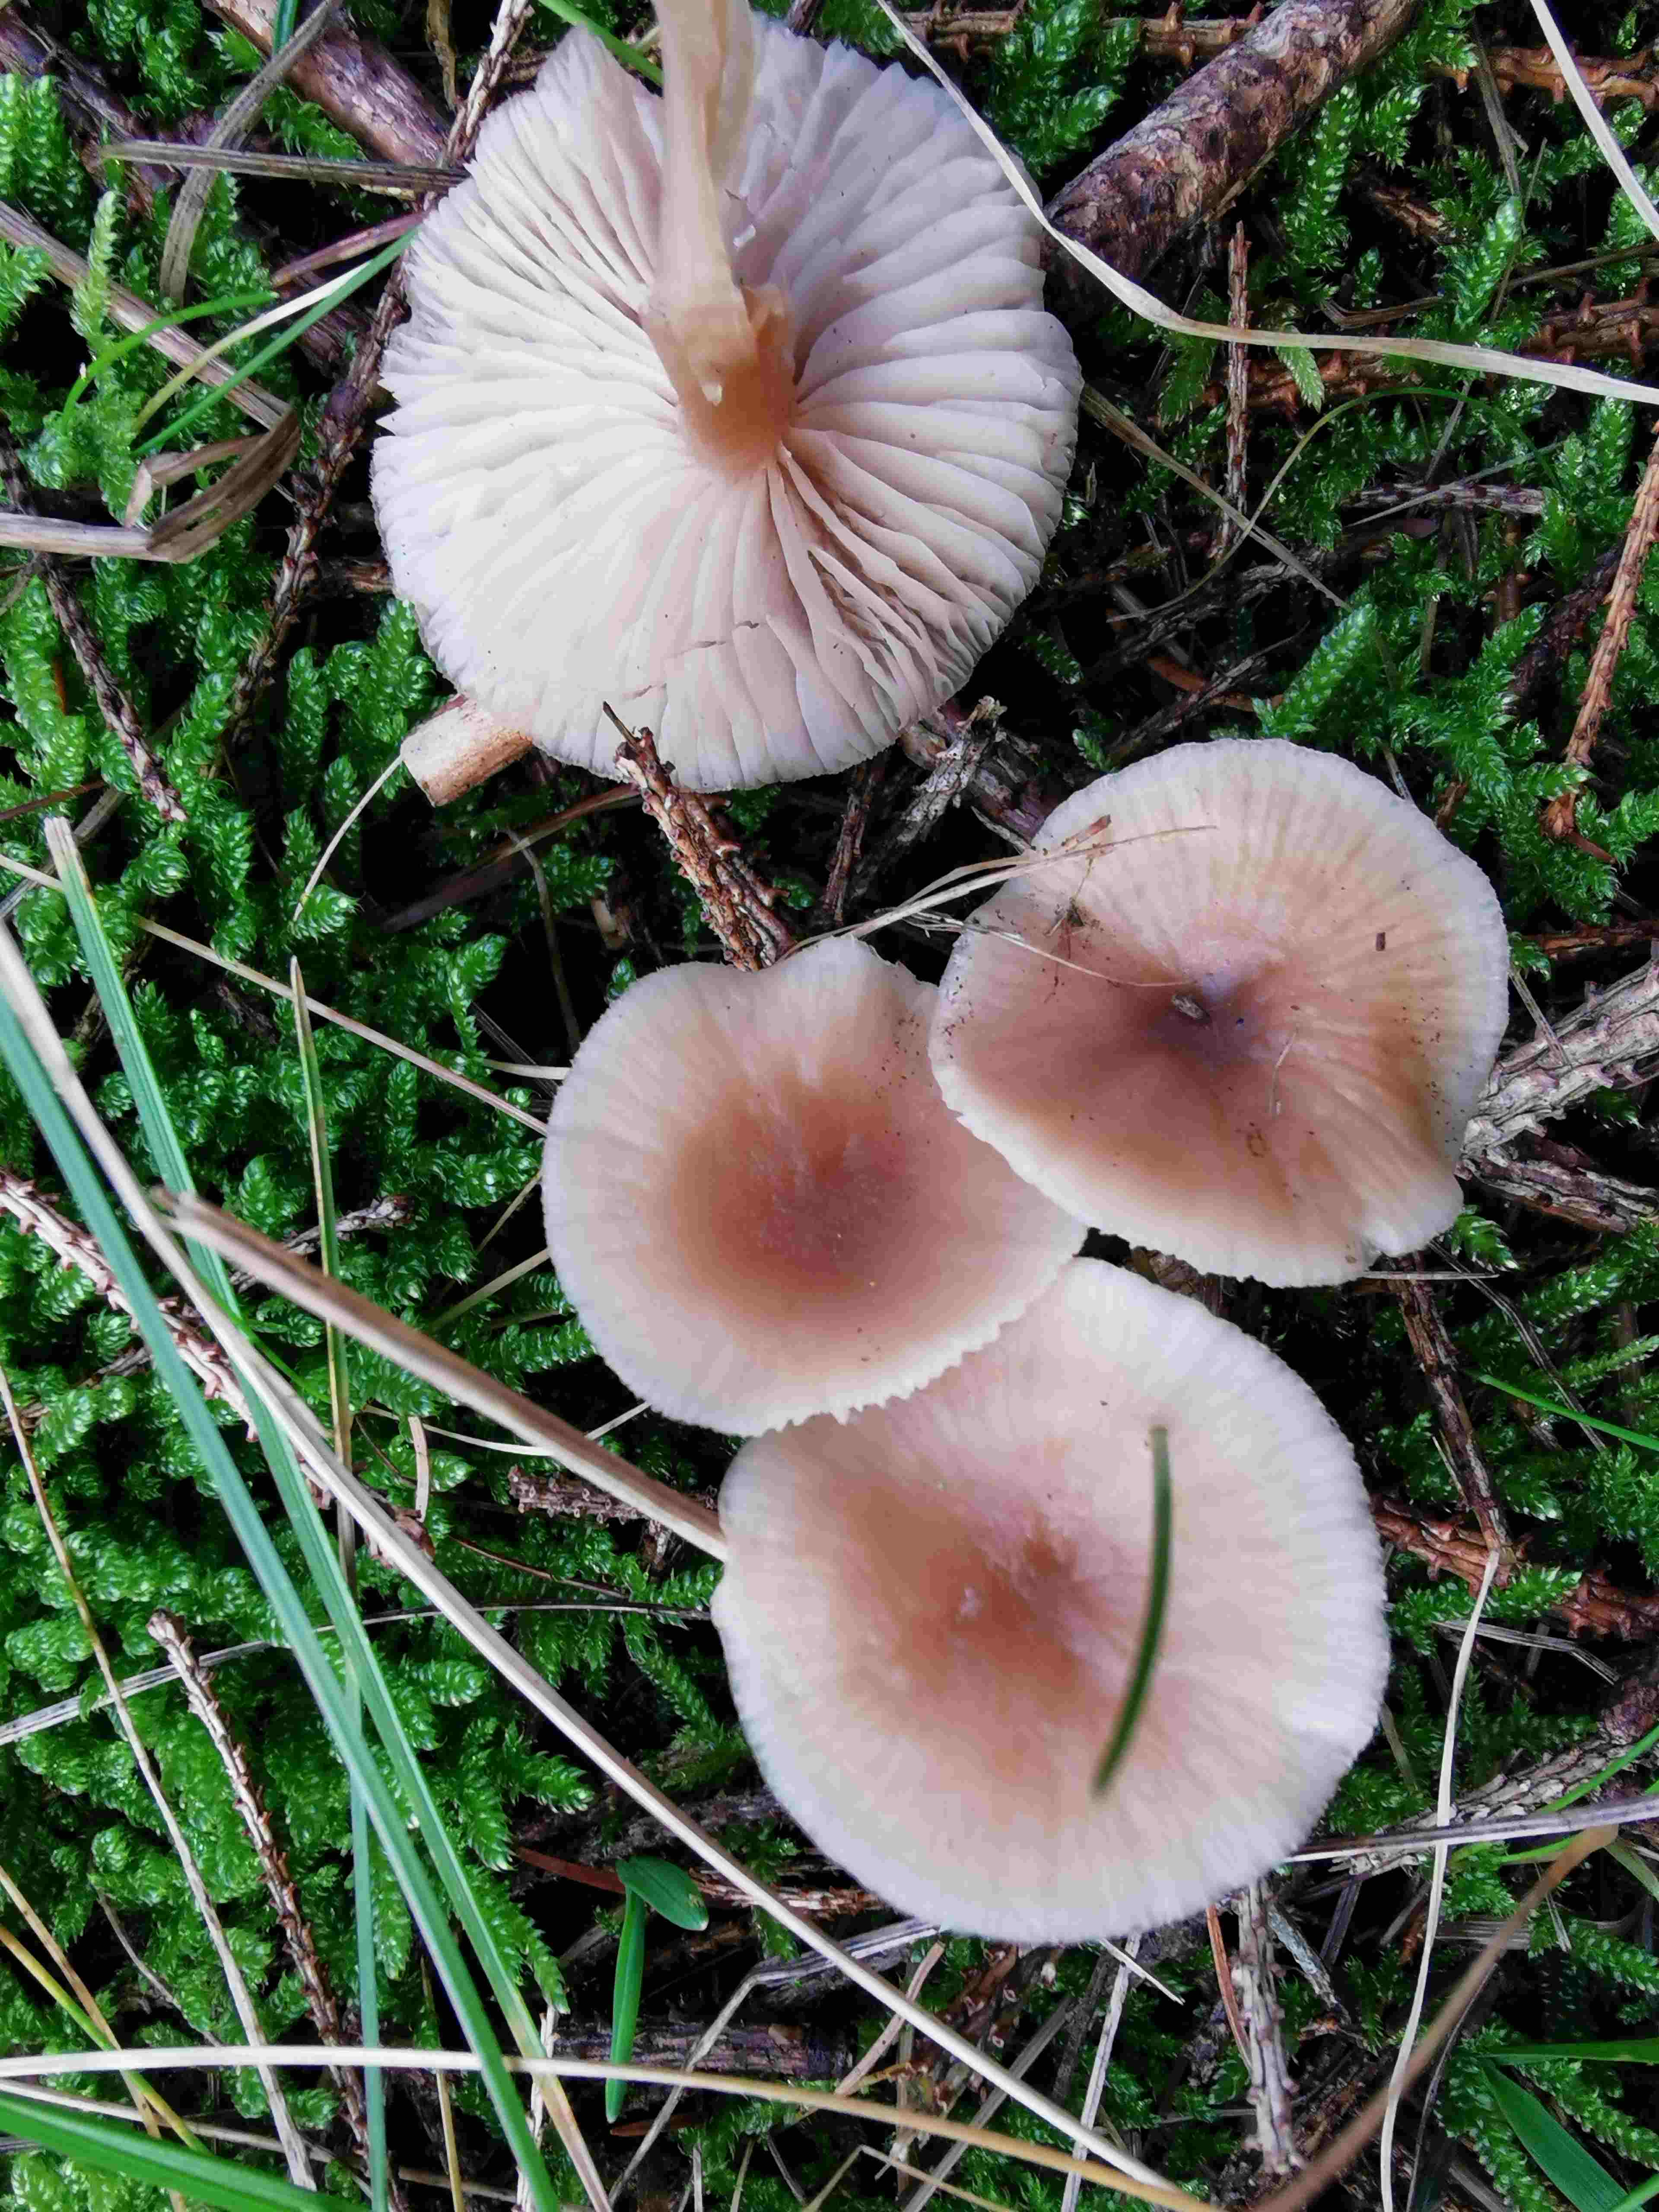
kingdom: Fungi
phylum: Basidiomycota
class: Agaricomycetes
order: Agaricales
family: Tricholomataceae
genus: Clitocybe
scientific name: Clitocybe fragrans
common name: vellugtende tragthat
